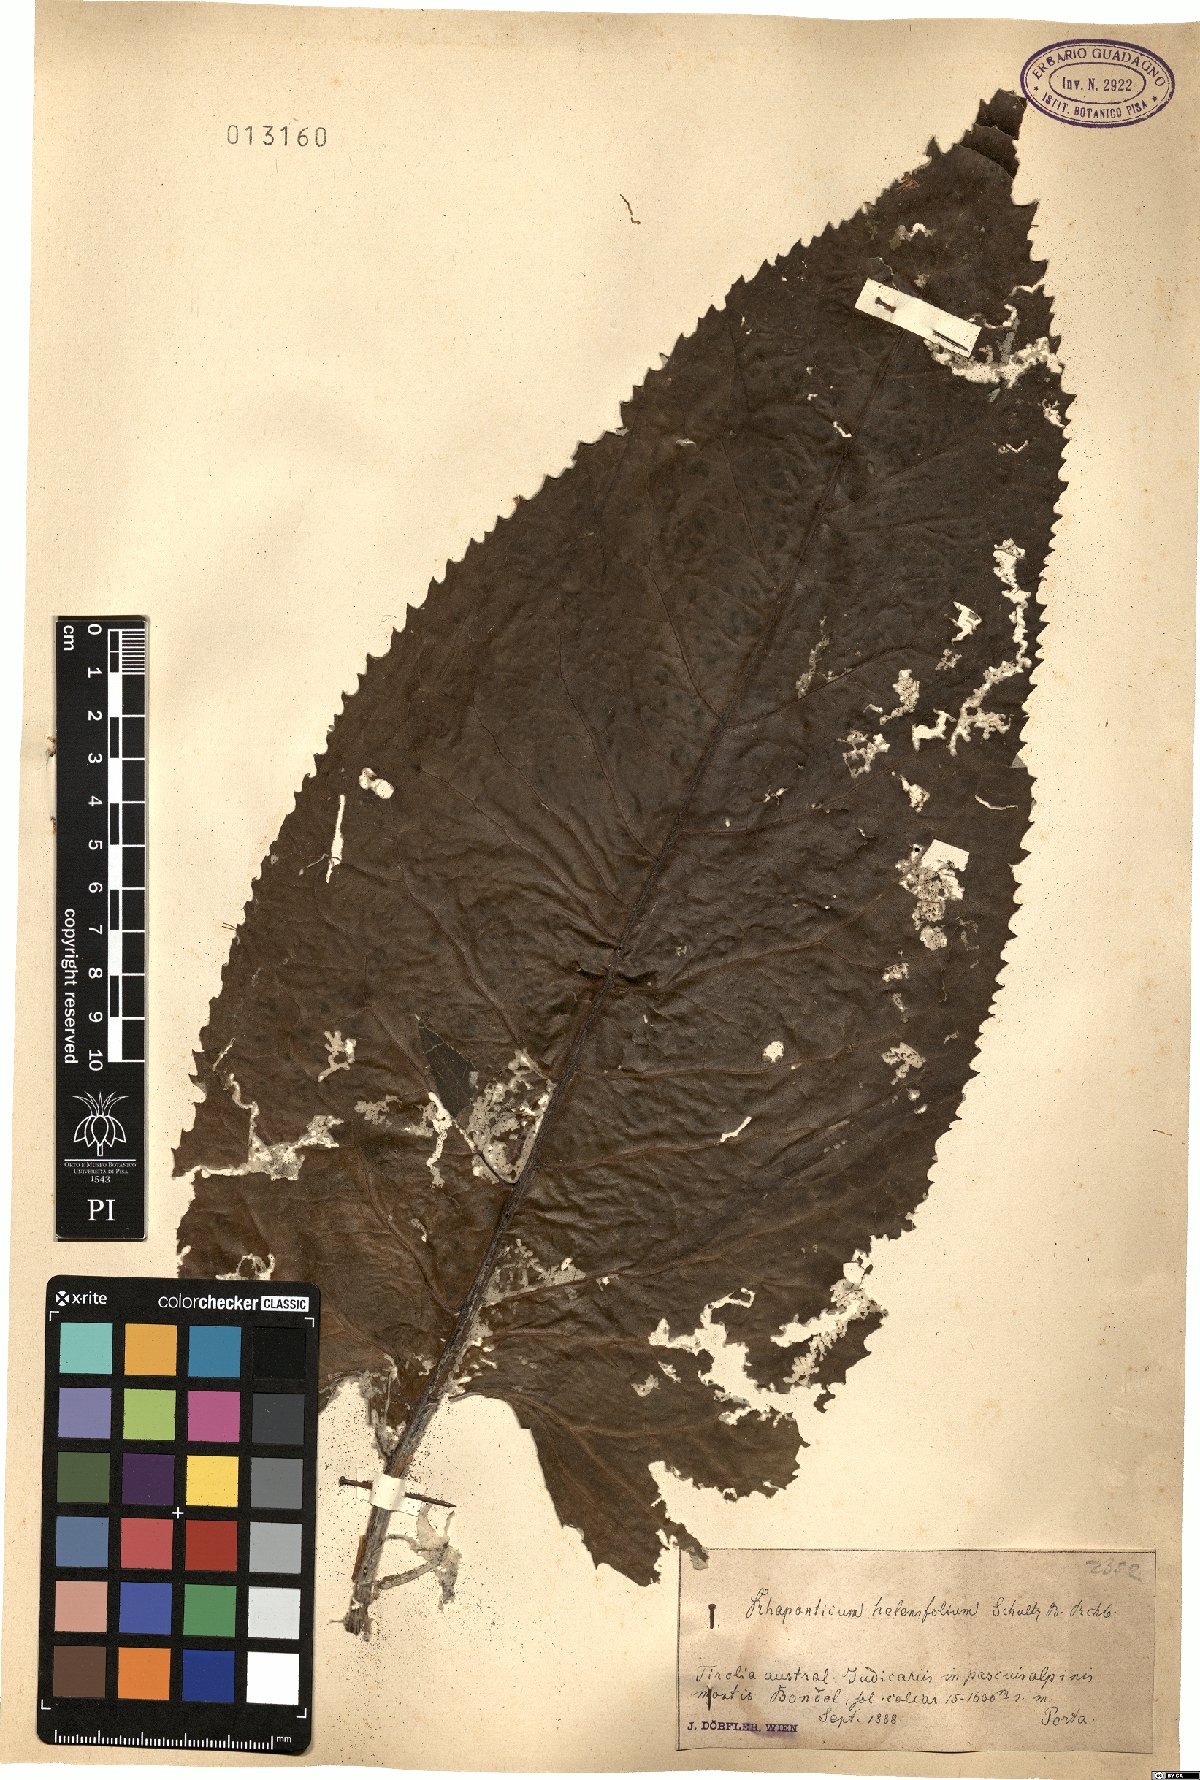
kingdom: Plantae
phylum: Tracheophyta
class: Magnoliopsida
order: Asterales
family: Asteraceae
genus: Leuzea
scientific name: Leuzea rhapontica
